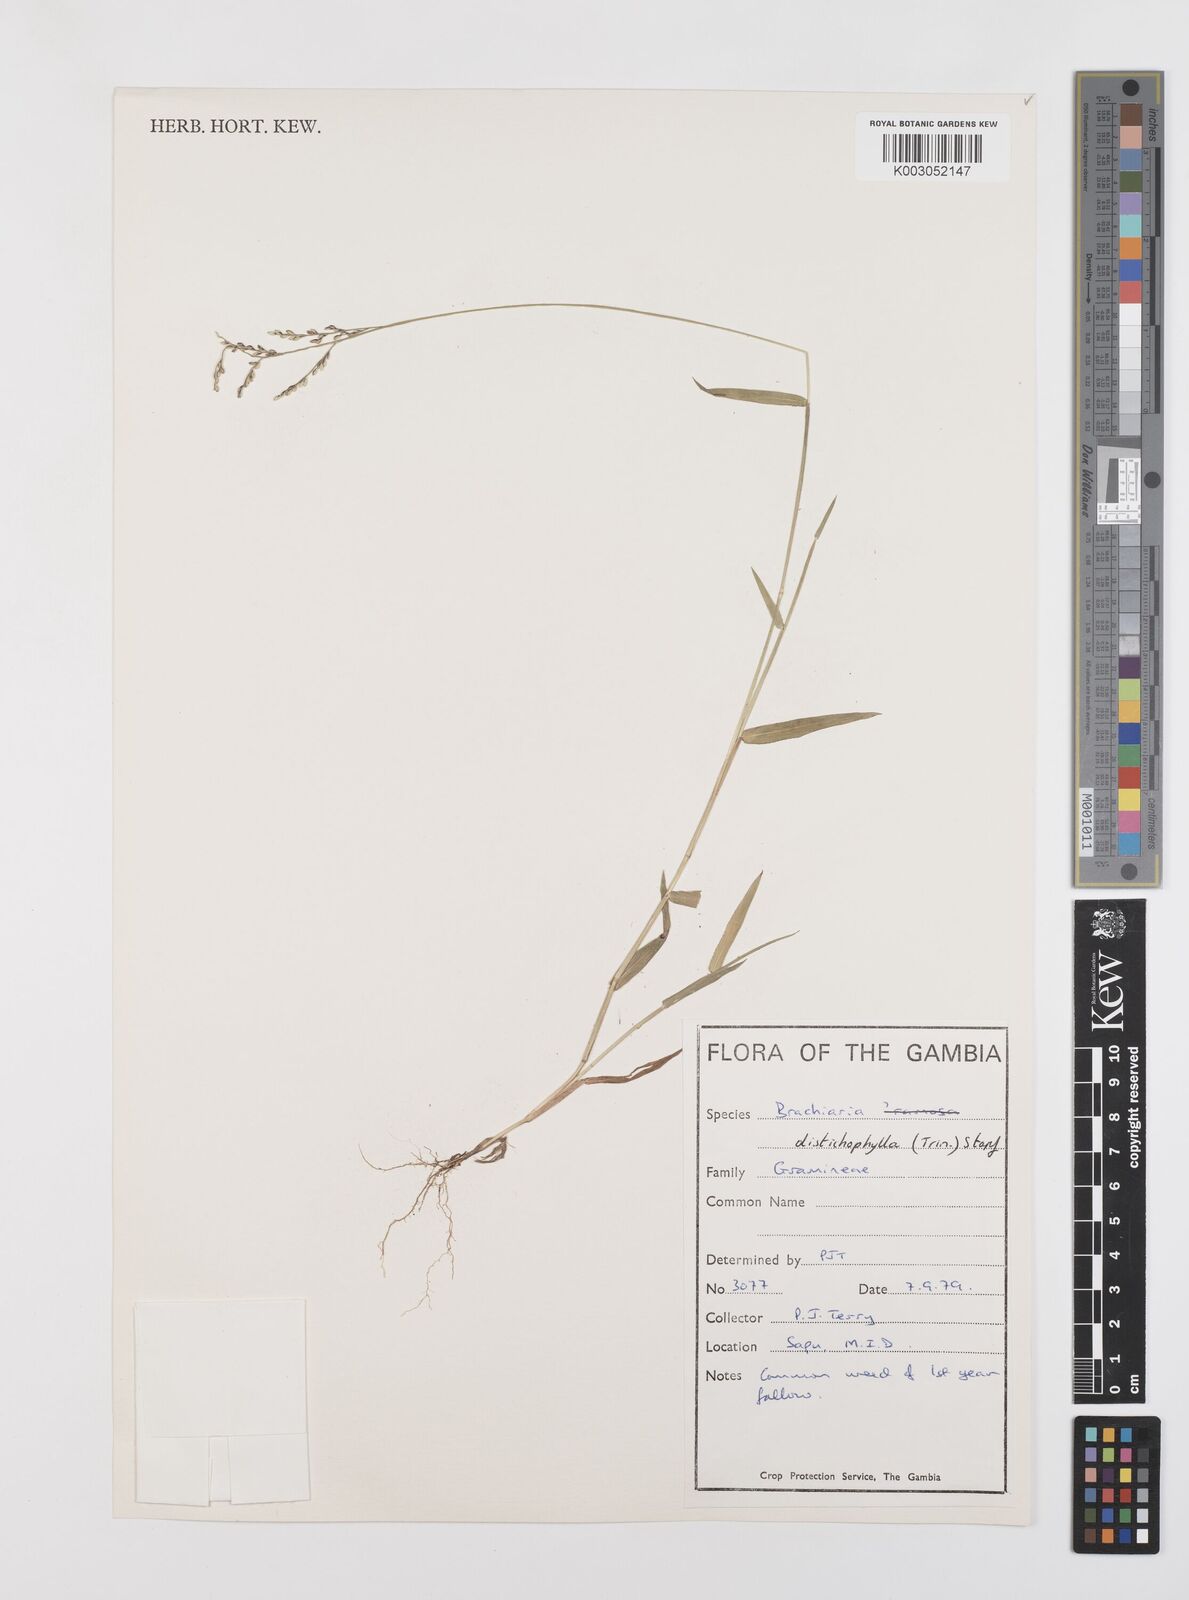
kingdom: Plantae
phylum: Tracheophyta
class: Liliopsida
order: Poales
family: Poaceae
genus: Urochloa
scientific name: Urochloa villosa
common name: Hairy signalgrass
